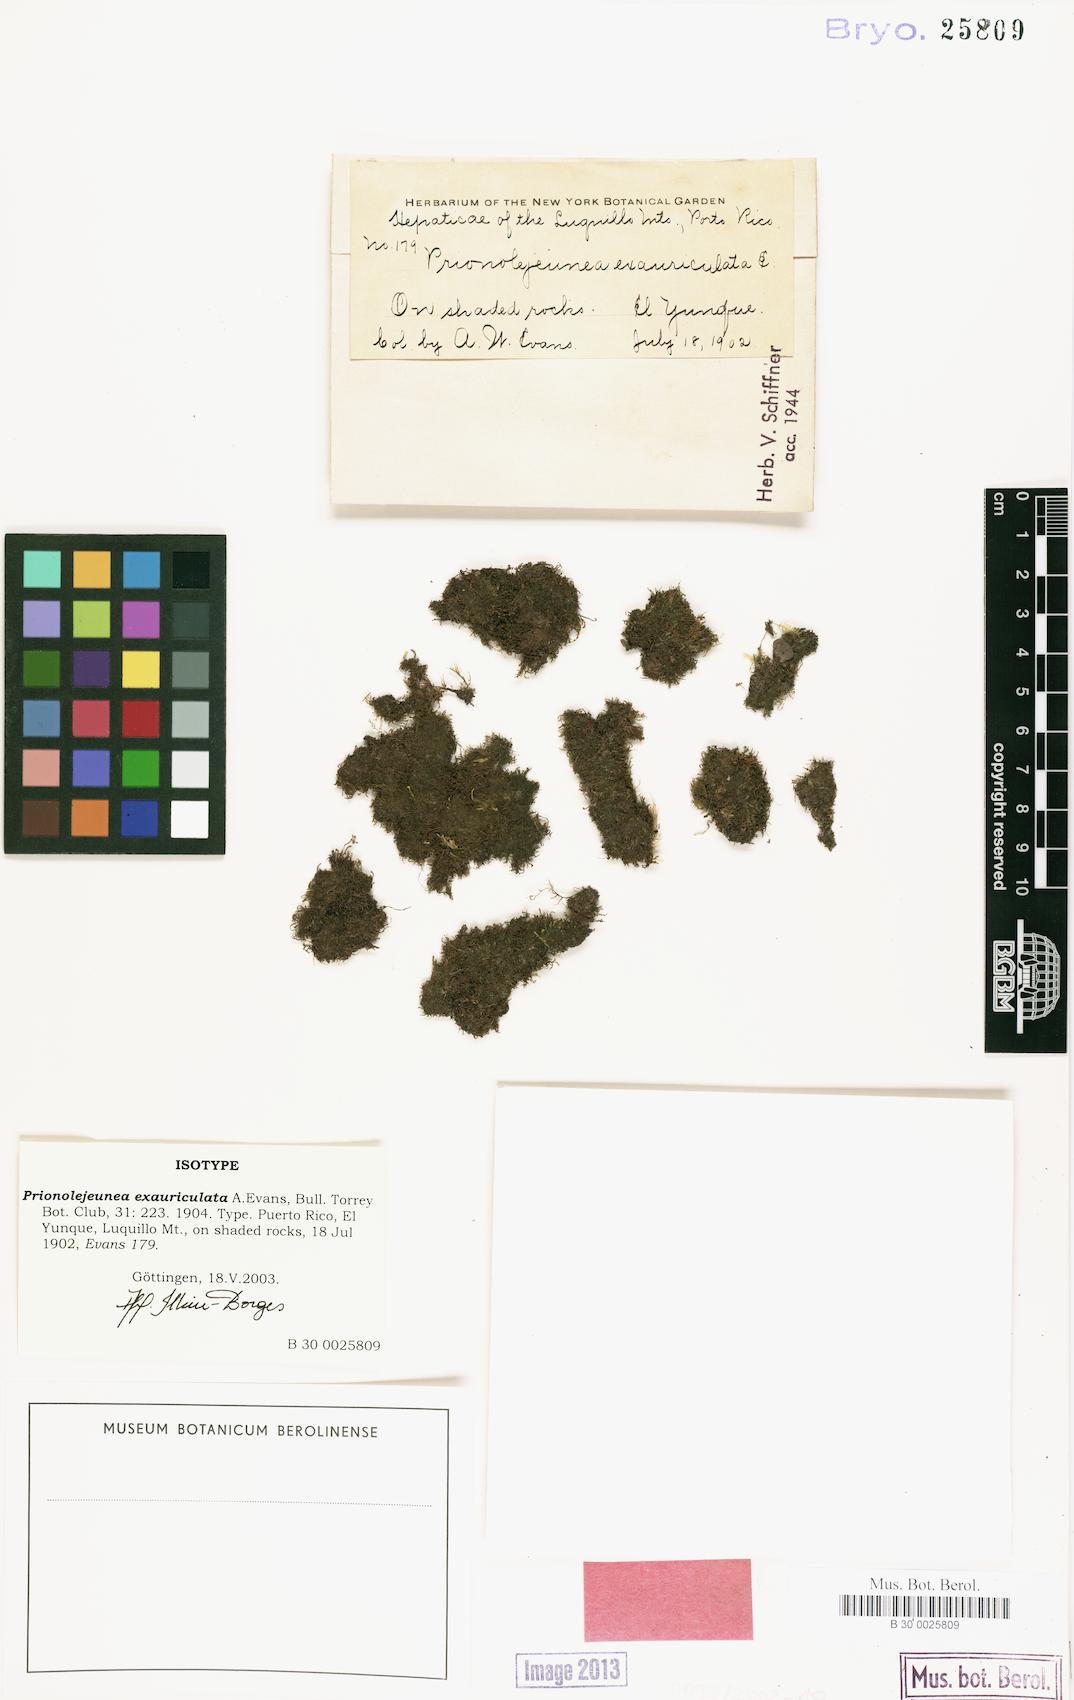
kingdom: Plantae
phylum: Marchantiophyta
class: Jungermanniopsida
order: Porellales
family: Lejeuneaceae
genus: Prionolejeunea
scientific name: Prionolejeunea exauriculata
